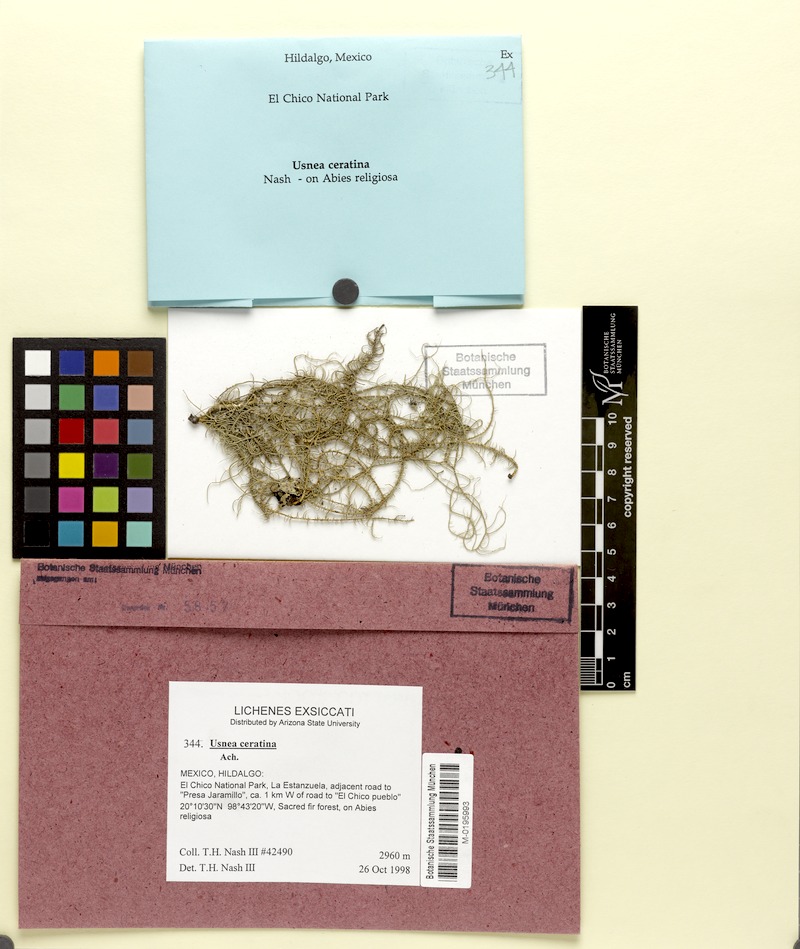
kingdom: Fungi
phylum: Ascomycota
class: Lecanoromycetes
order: Lecanorales
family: Parmeliaceae
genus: Usnea
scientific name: Usnea ceratina
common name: Warty beard lichen
